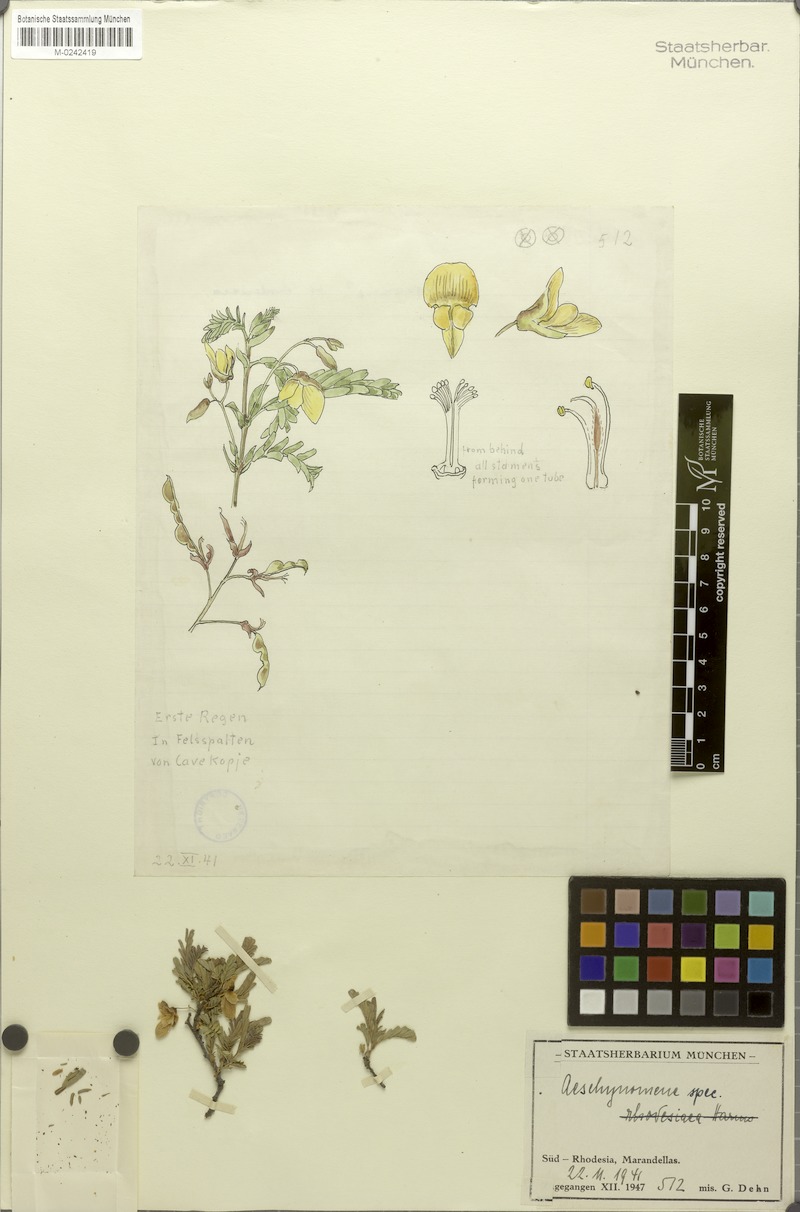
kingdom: Plantae
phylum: Tracheophyta
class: Magnoliopsida
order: Fabales
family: Fabaceae
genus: Aeschynomene
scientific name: Aeschynomene
